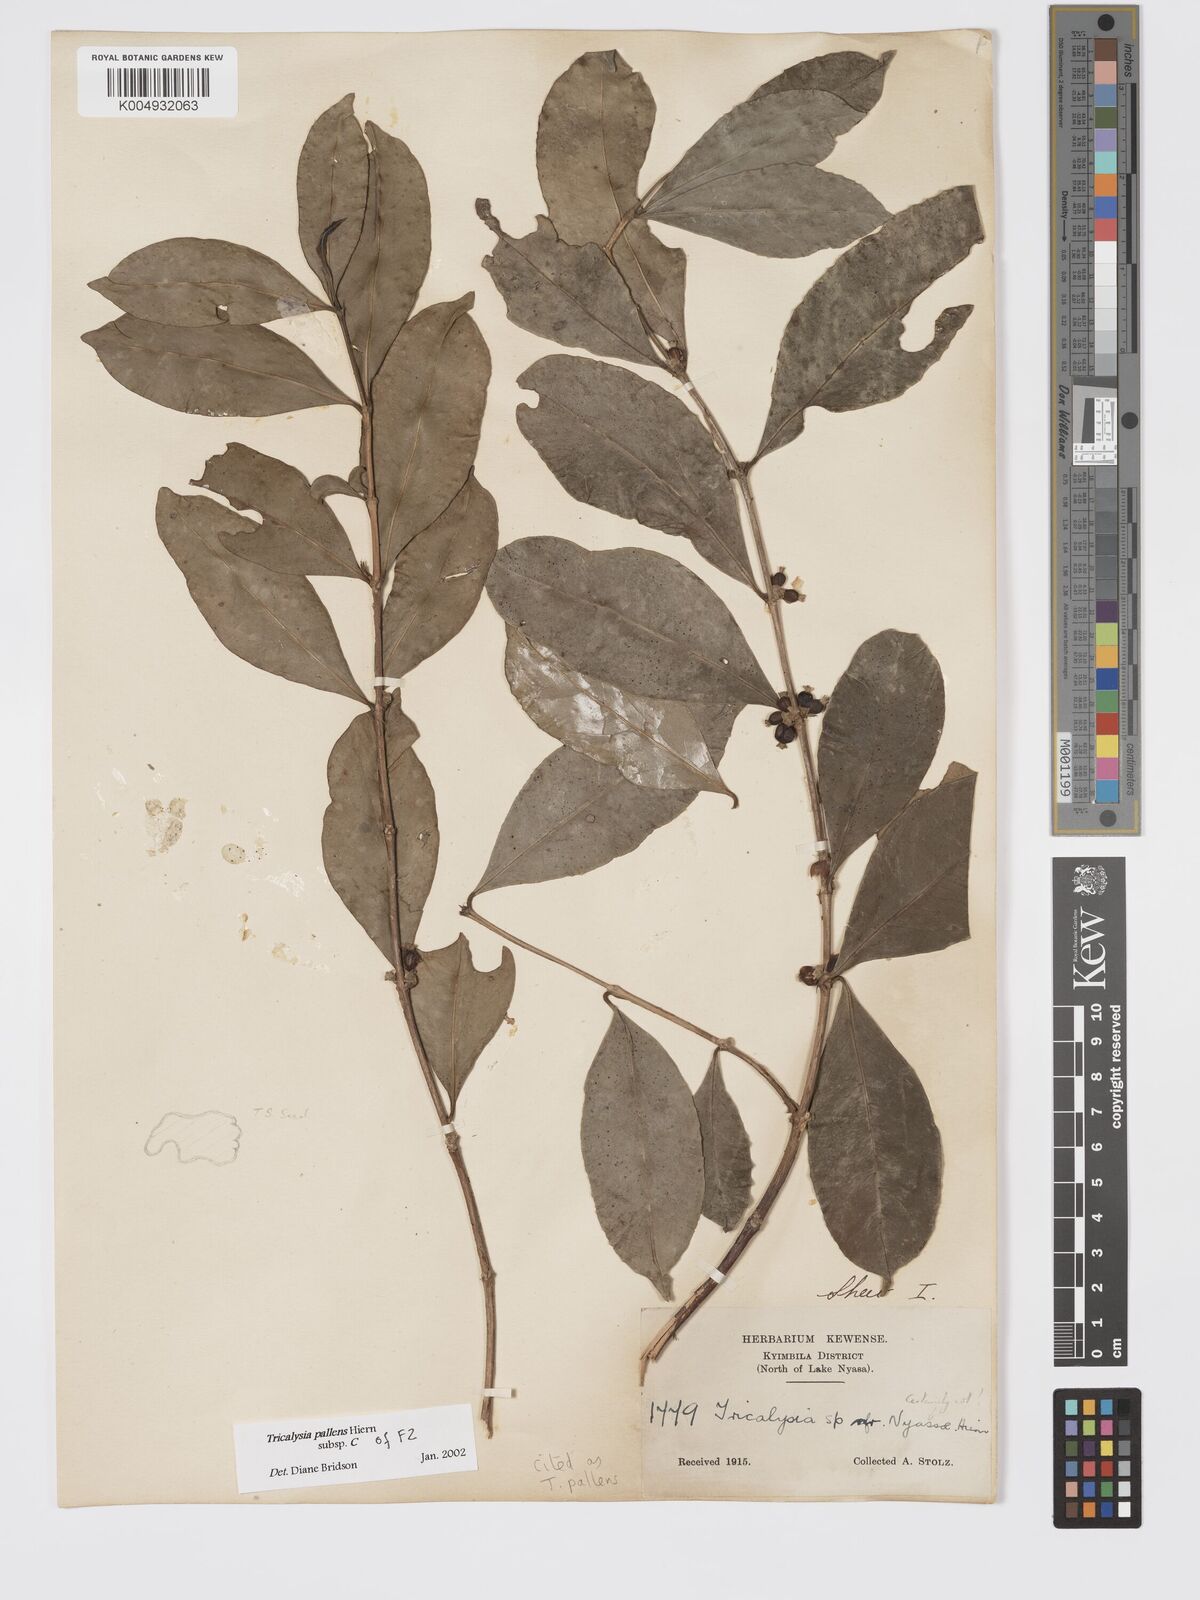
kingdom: Plantae
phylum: Tracheophyta
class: Magnoliopsida
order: Gentianales
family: Rubiaceae
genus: Tricalysia
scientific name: Tricalysia pallens
